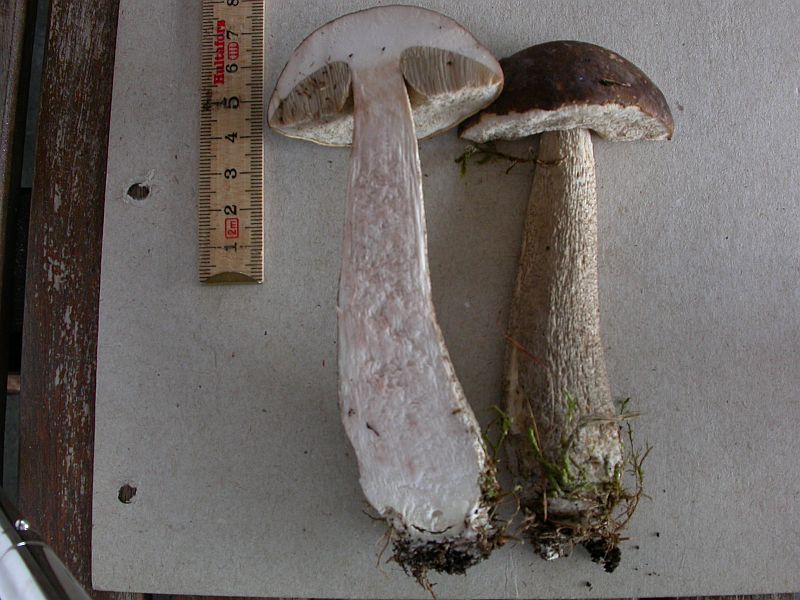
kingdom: Fungi
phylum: Basidiomycota
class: Agaricomycetes
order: Boletales
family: Boletaceae
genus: Leccinum
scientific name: Leccinum cyaneobasileucum
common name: almindelig skælrørhat
